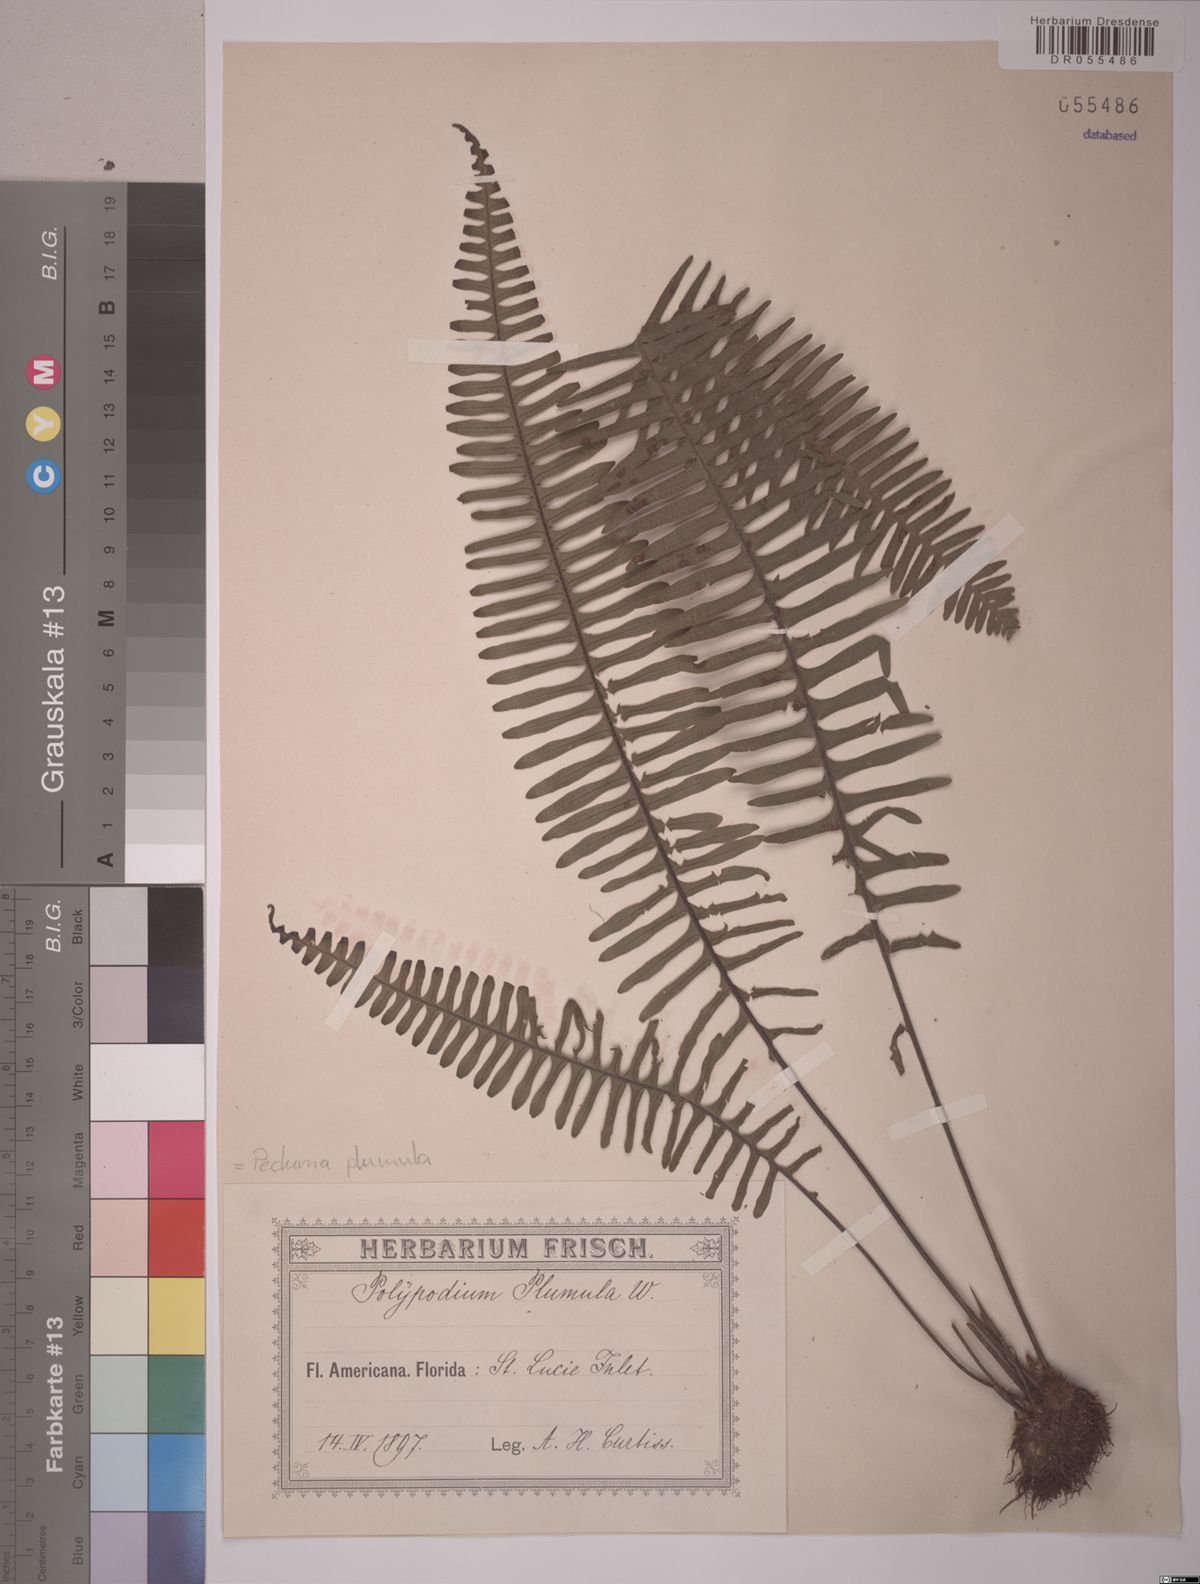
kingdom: Plantae
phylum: Tracheophyta
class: Polypodiopsida
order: Polypodiales
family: Polypodiaceae
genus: Pecluma
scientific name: Pecluma plumula
